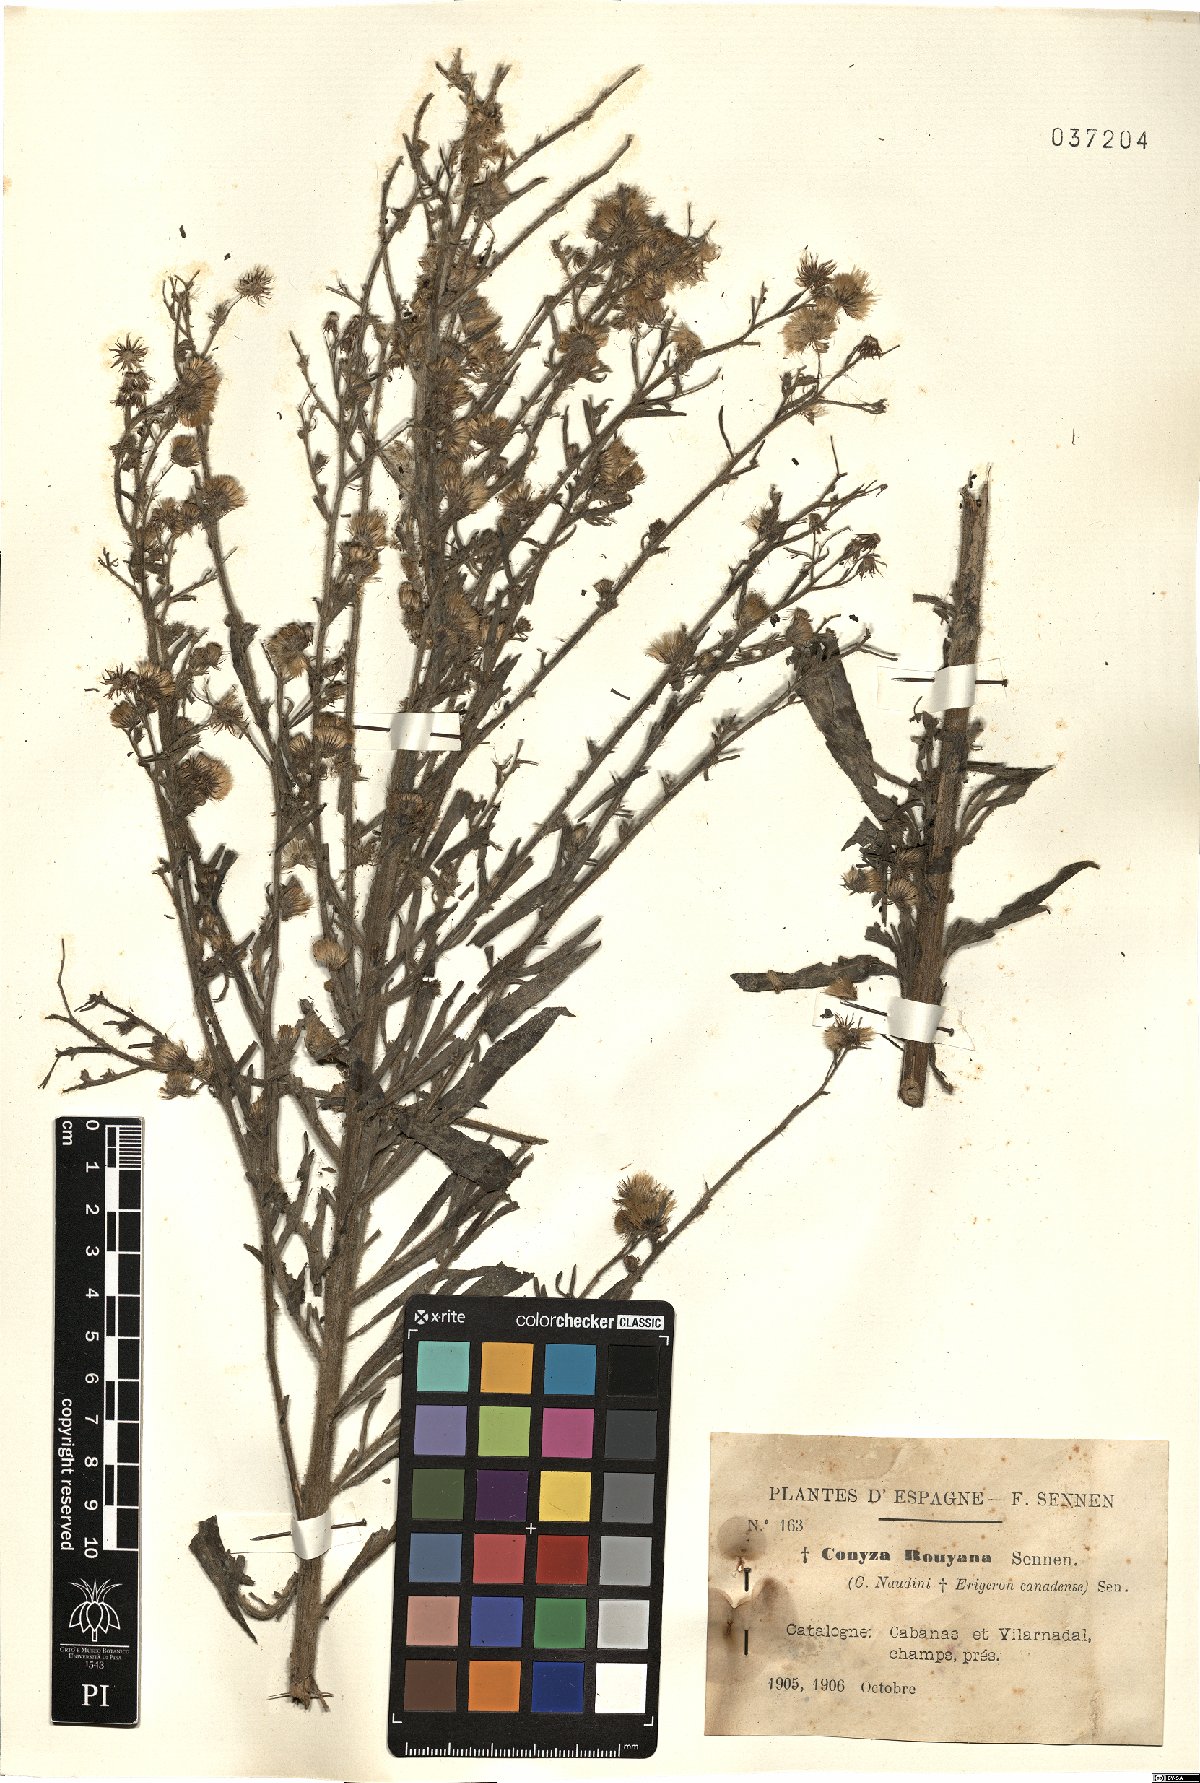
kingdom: Plantae
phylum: Tracheophyta
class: Magnoliopsida
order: Asterales
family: Asteraceae
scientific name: Asteraceae
